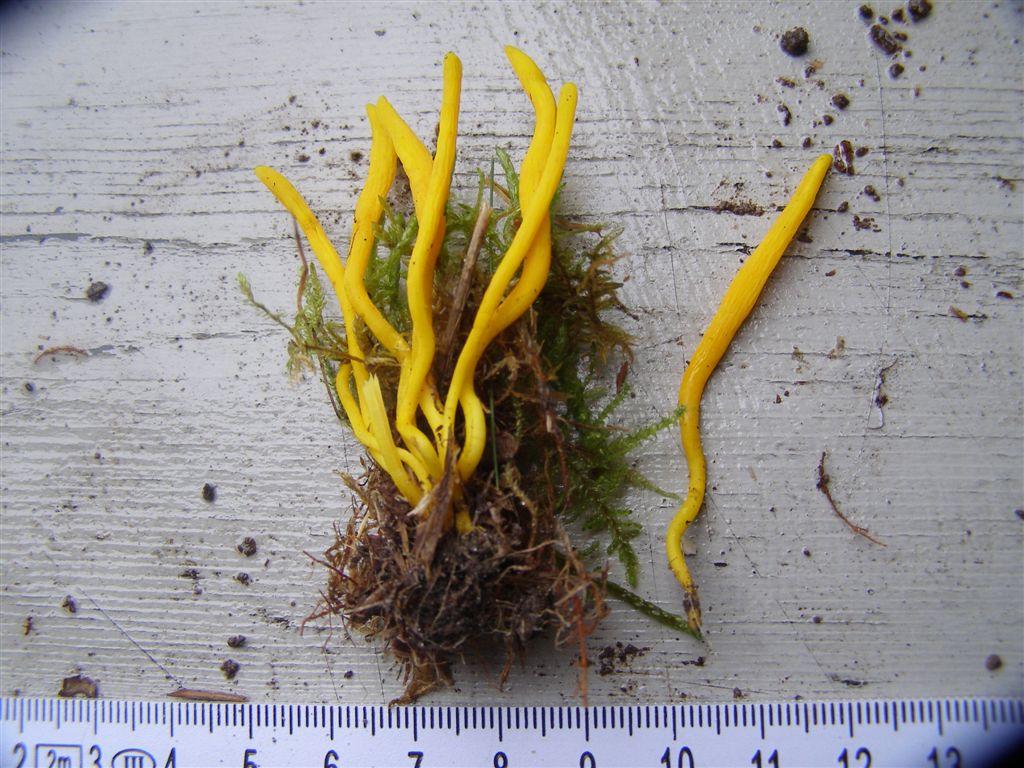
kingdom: Fungi
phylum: Basidiomycota
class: Agaricomycetes
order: Agaricales
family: Clavariaceae
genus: Clavulinopsis
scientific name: Clavulinopsis helvola
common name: orangegul køllesvamp
